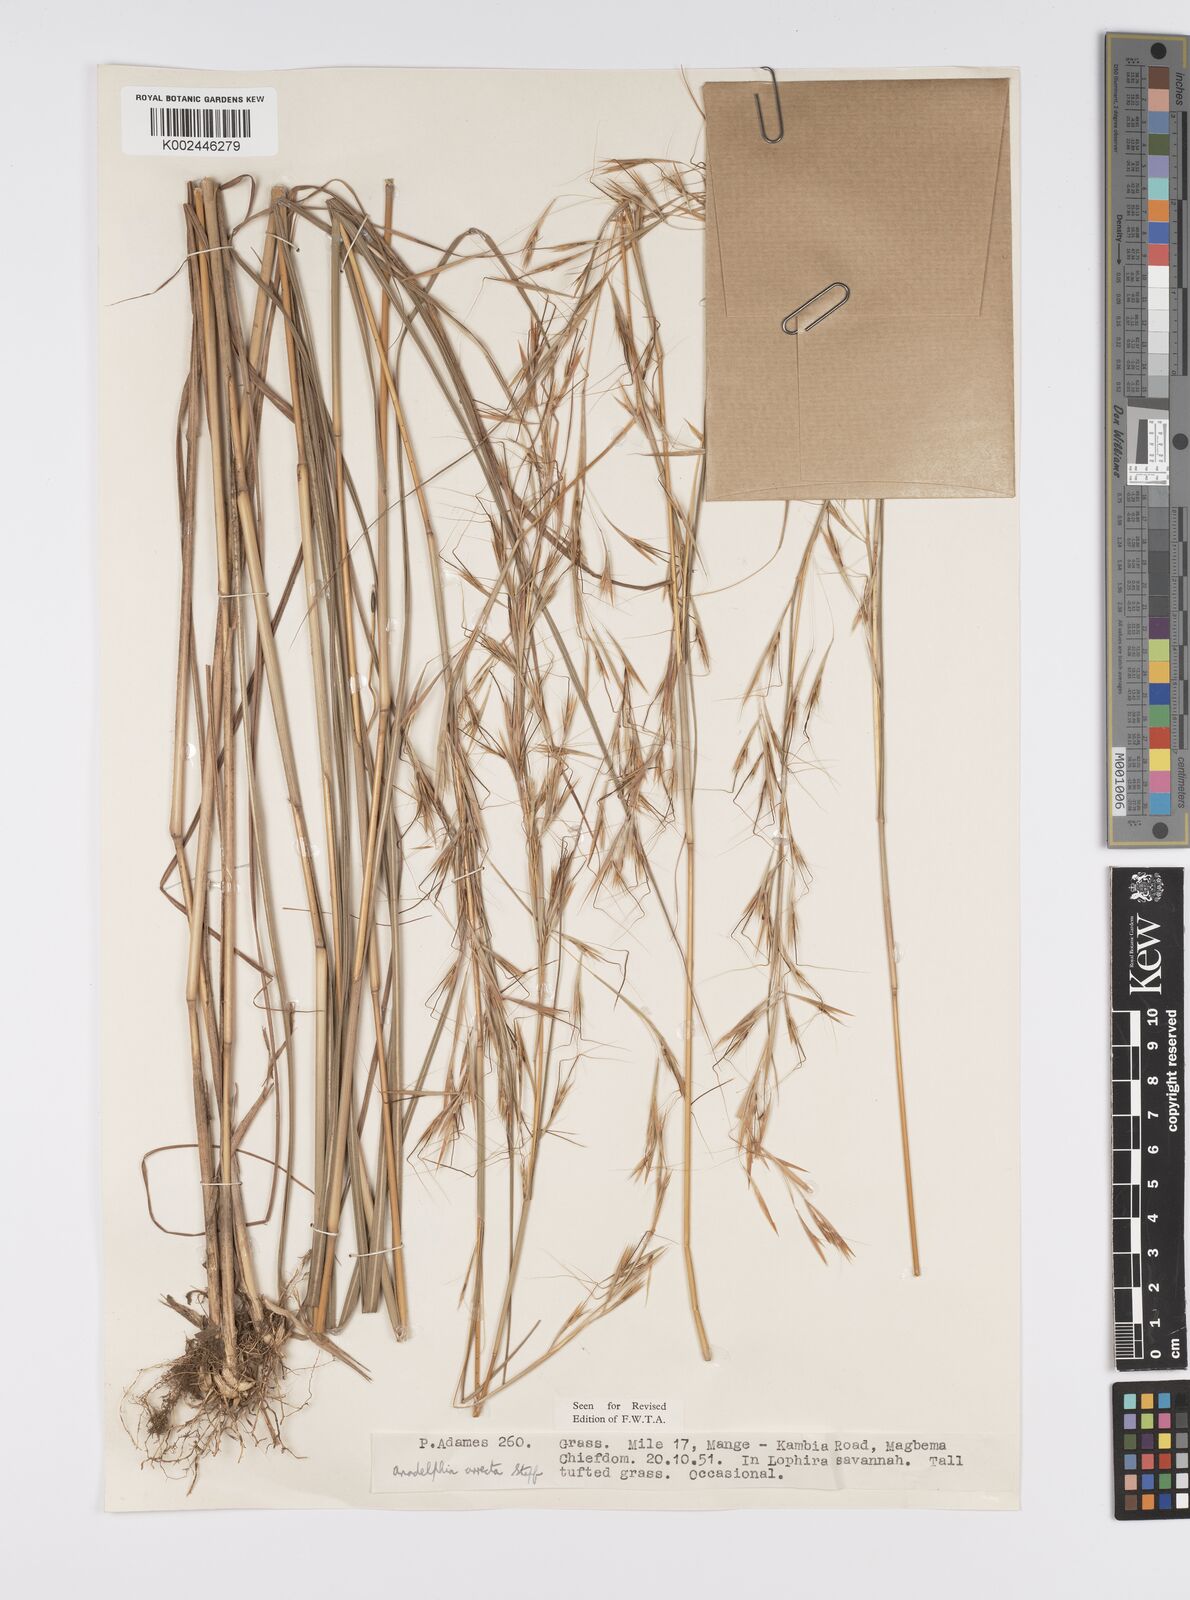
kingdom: Plantae
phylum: Tracheophyta
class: Liliopsida
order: Poales
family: Poaceae
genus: Anadelphia
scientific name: Anadelphia afzeliana
